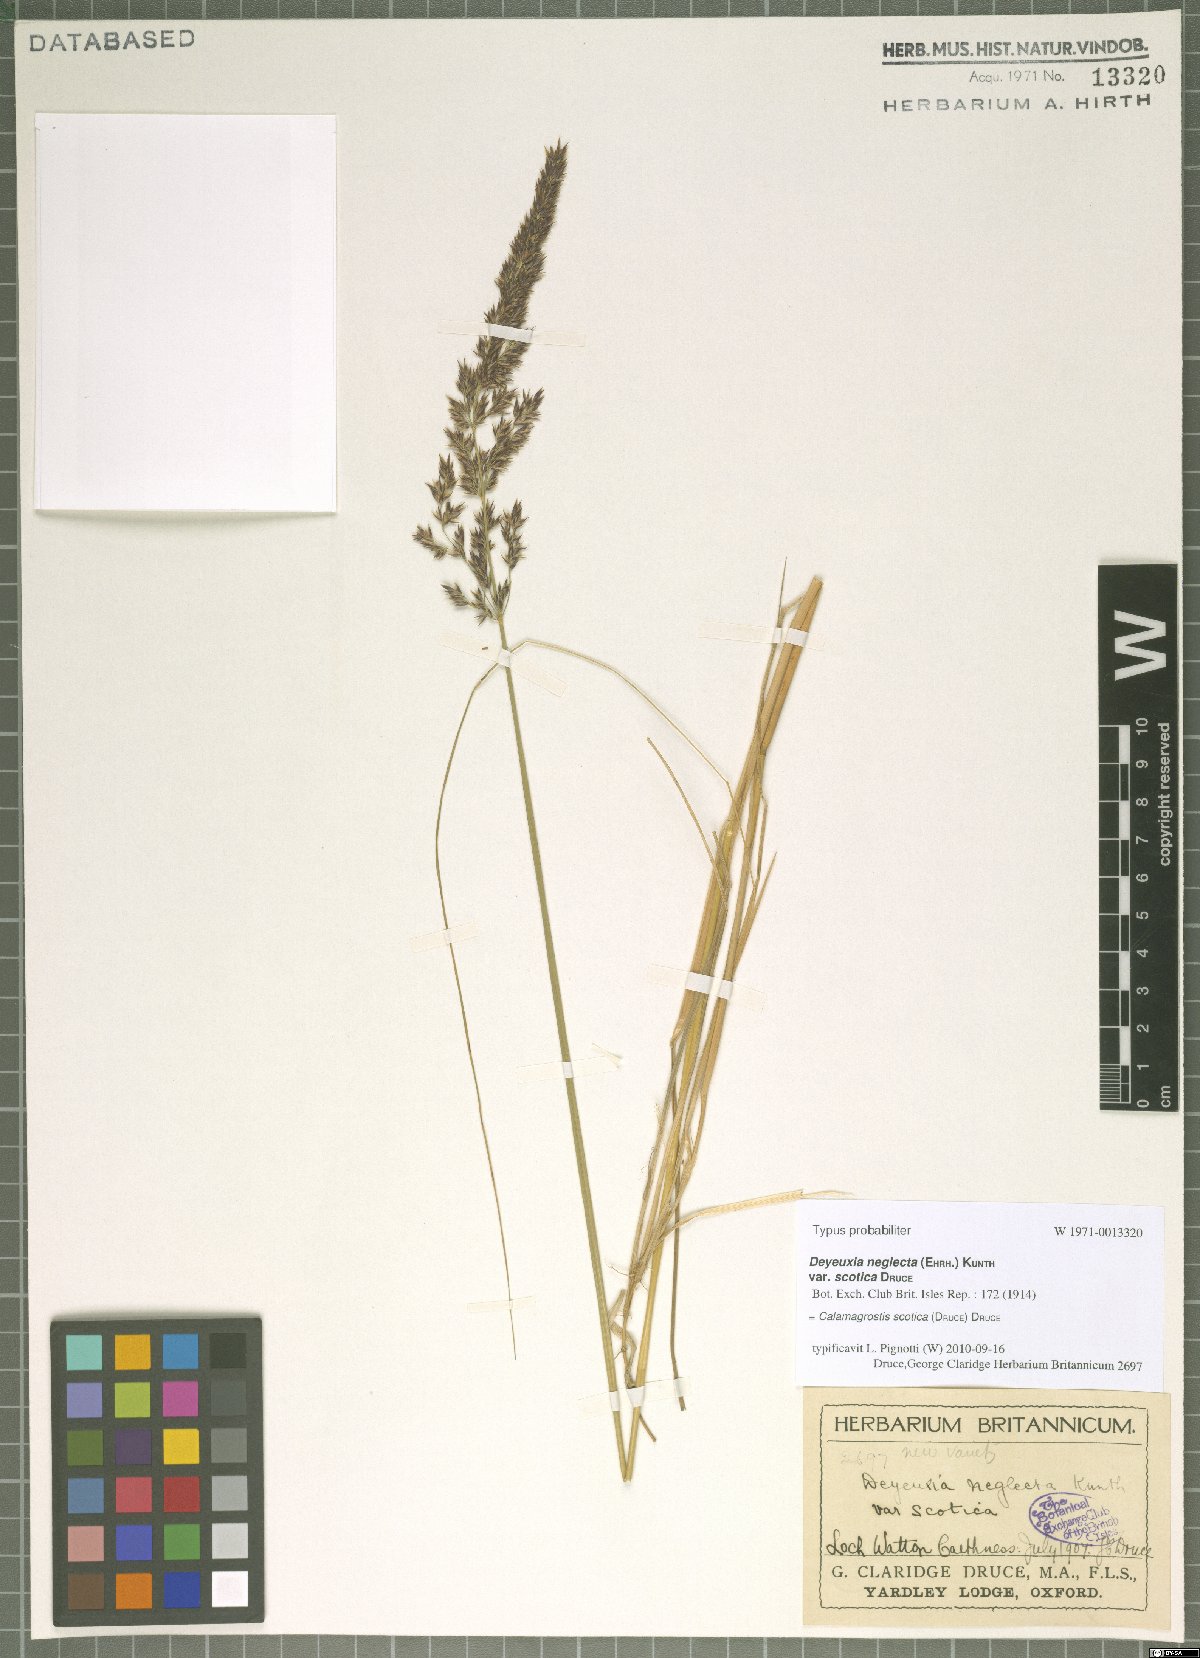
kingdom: Plantae
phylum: Tracheophyta
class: Liliopsida
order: Poales
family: Poaceae
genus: Calamagrostis
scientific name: Calamagrostis scotica
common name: Scottish small-reed
